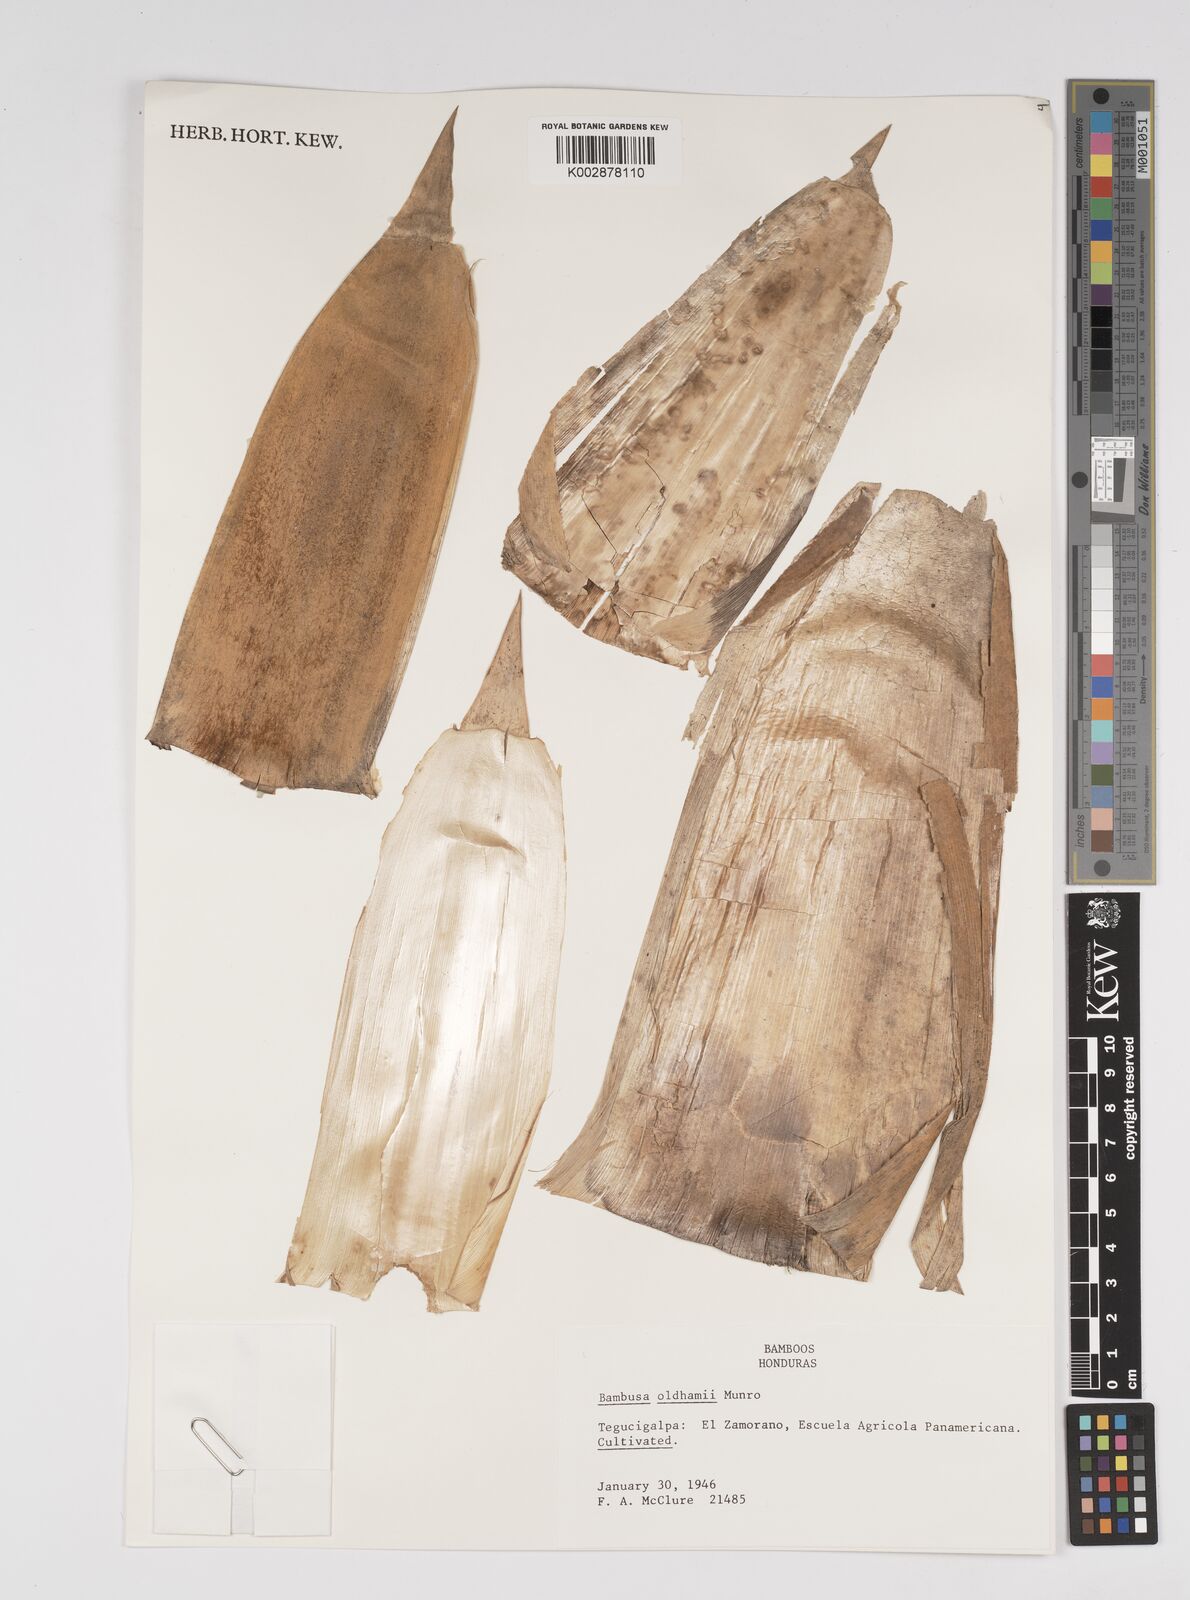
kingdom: Plantae
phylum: Tracheophyta
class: Liliopsida
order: Poales
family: Poaceae
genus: Bambusa
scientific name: Bambusa oldhamii
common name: Giant timber bamboo
